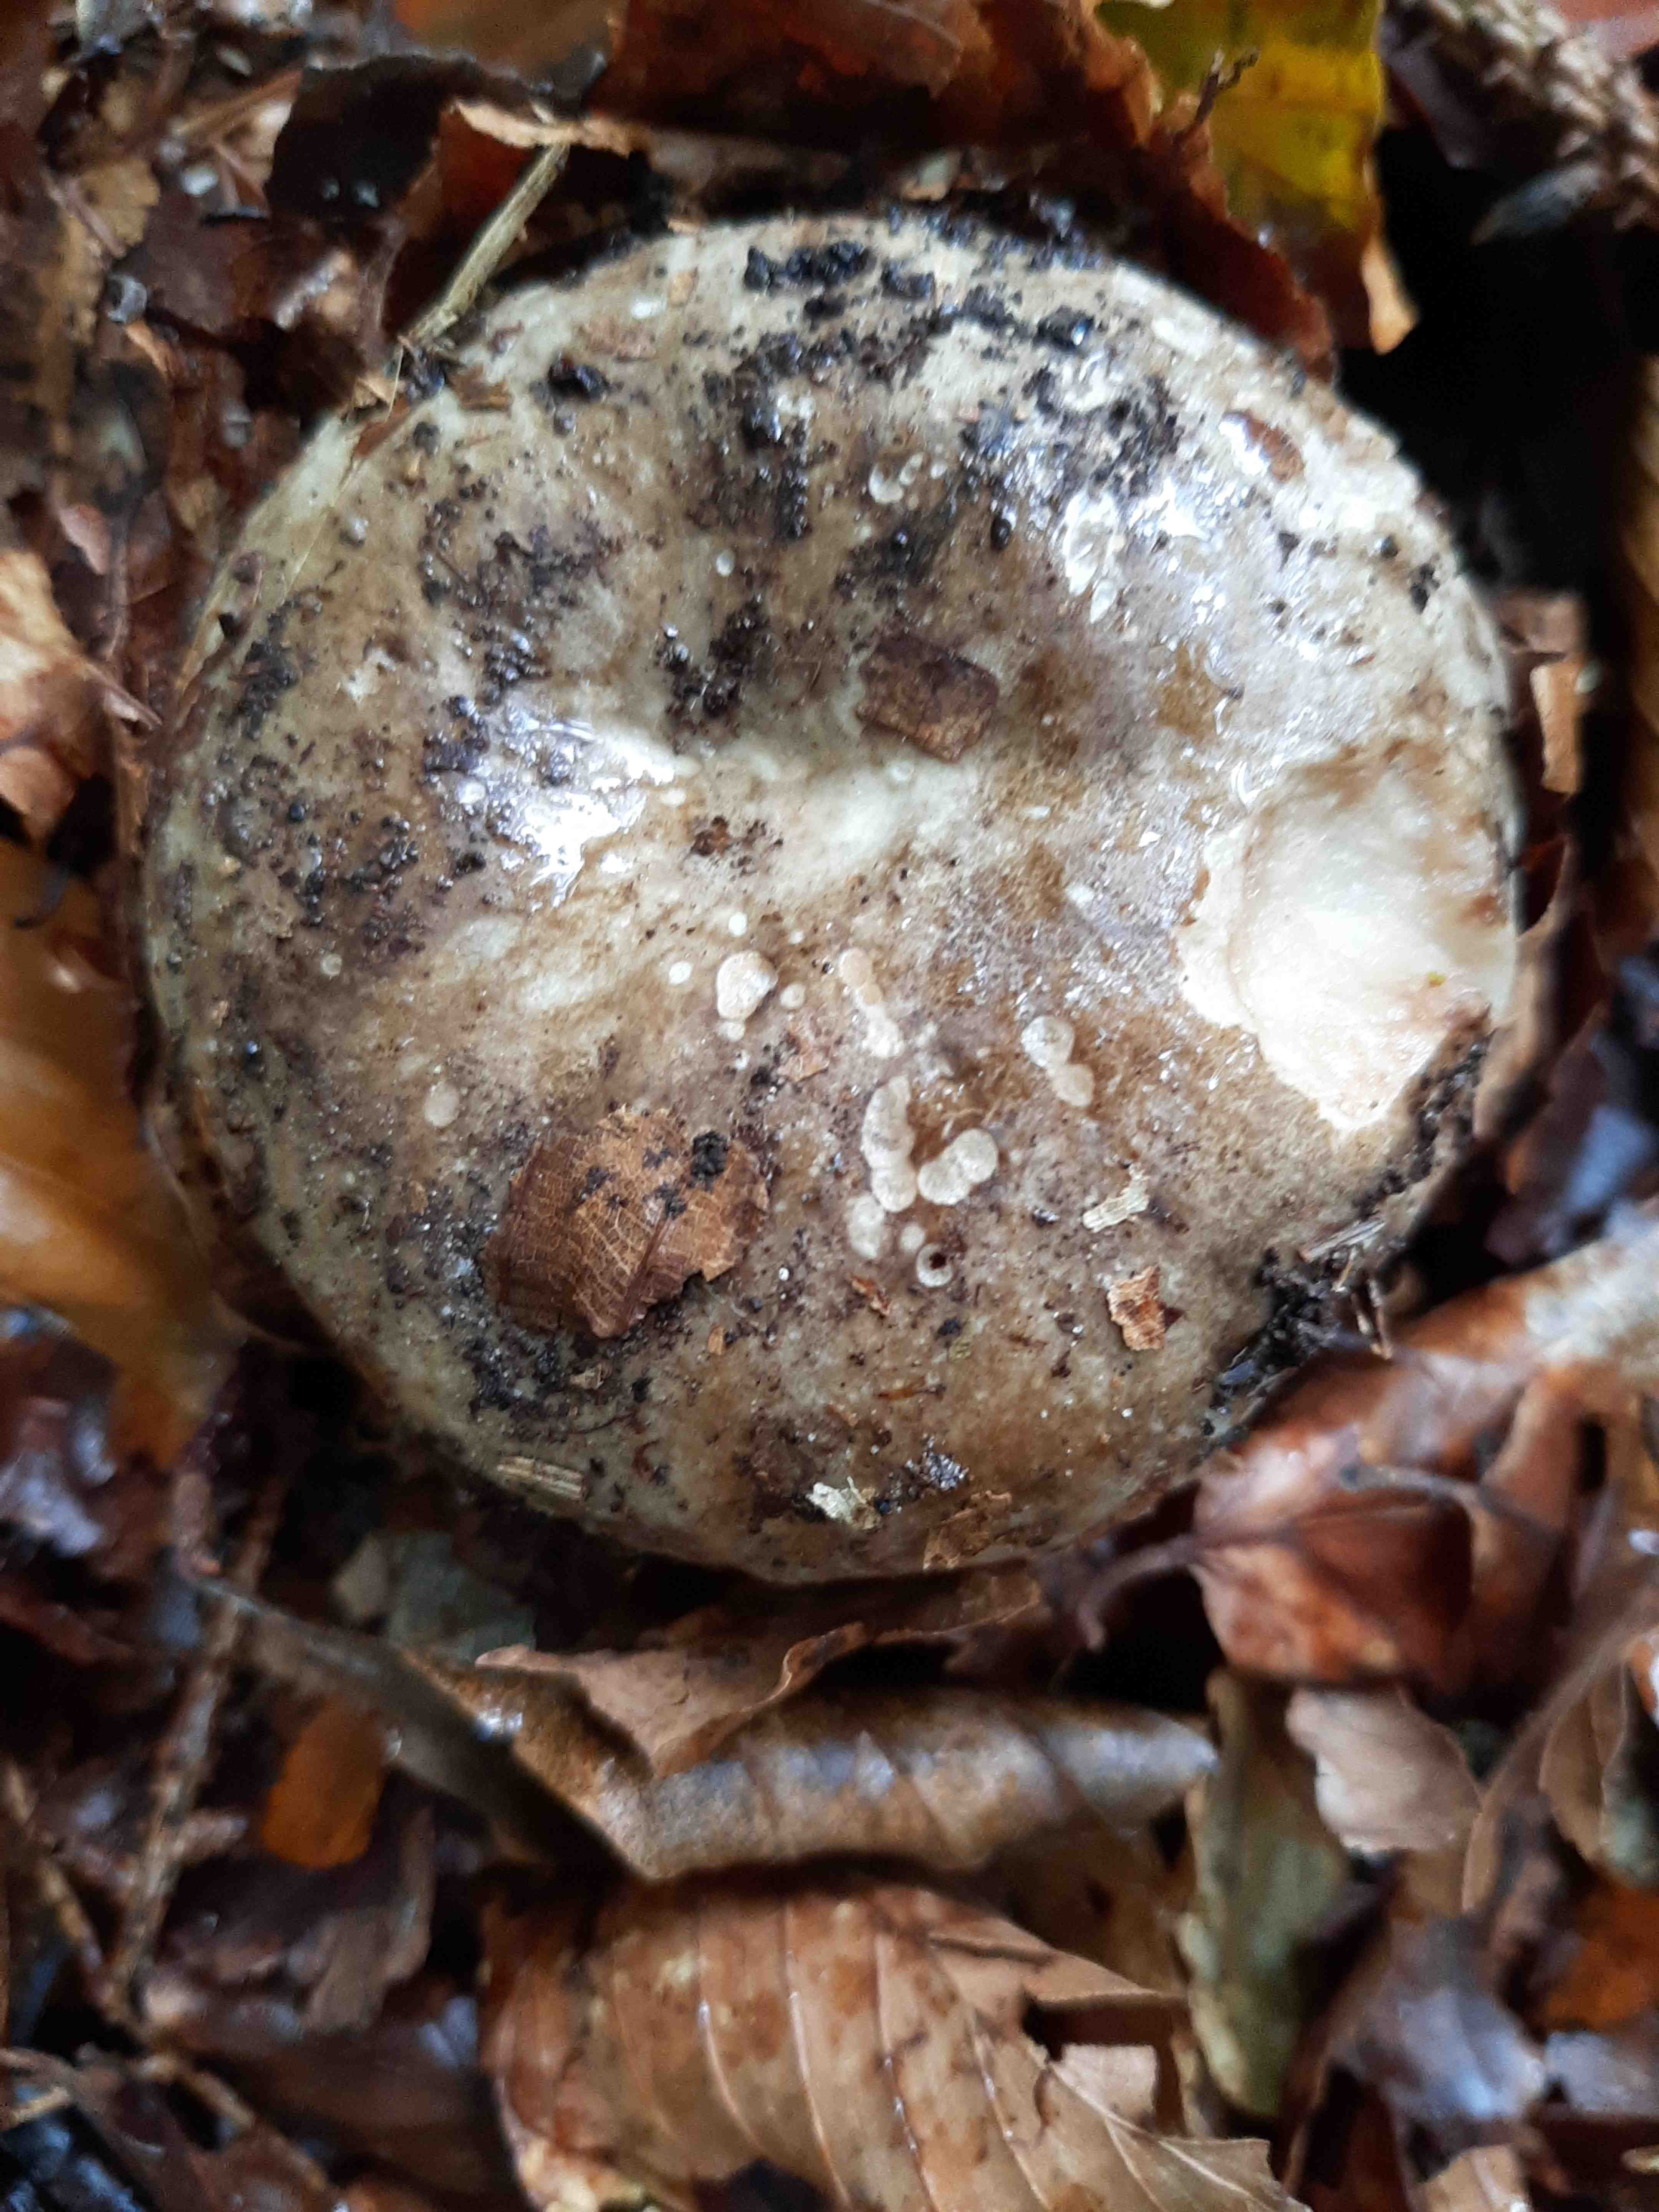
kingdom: Fungi
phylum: Basidiomycota
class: Agaricomycetes
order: Russulales
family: Russulaceae
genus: Russula
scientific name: Russula adusta
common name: sværtende skørhat
